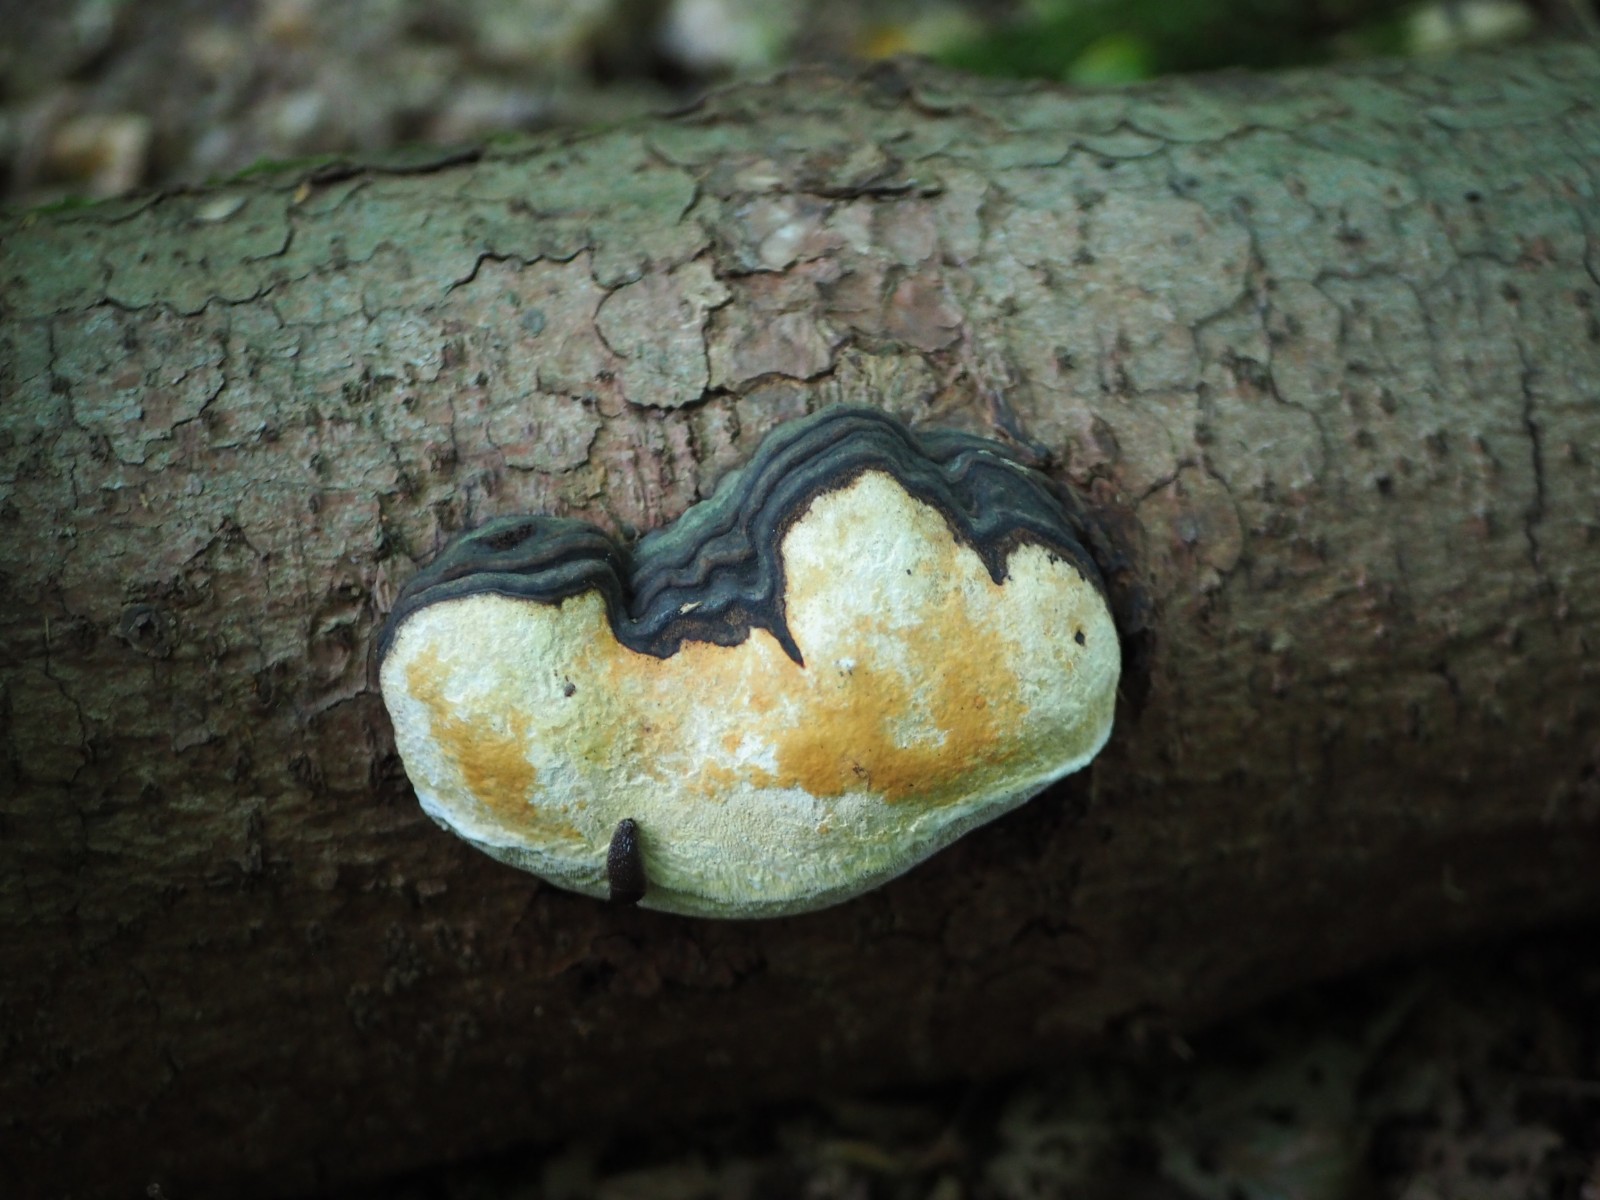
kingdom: Fungi
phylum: Basidiomycota
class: Agaricomycetes
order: Polyporales
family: Fomitopsidaceae
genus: Fomitopsis
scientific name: Fomitopsis pinicola
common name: randbæltet hovporesvamp
